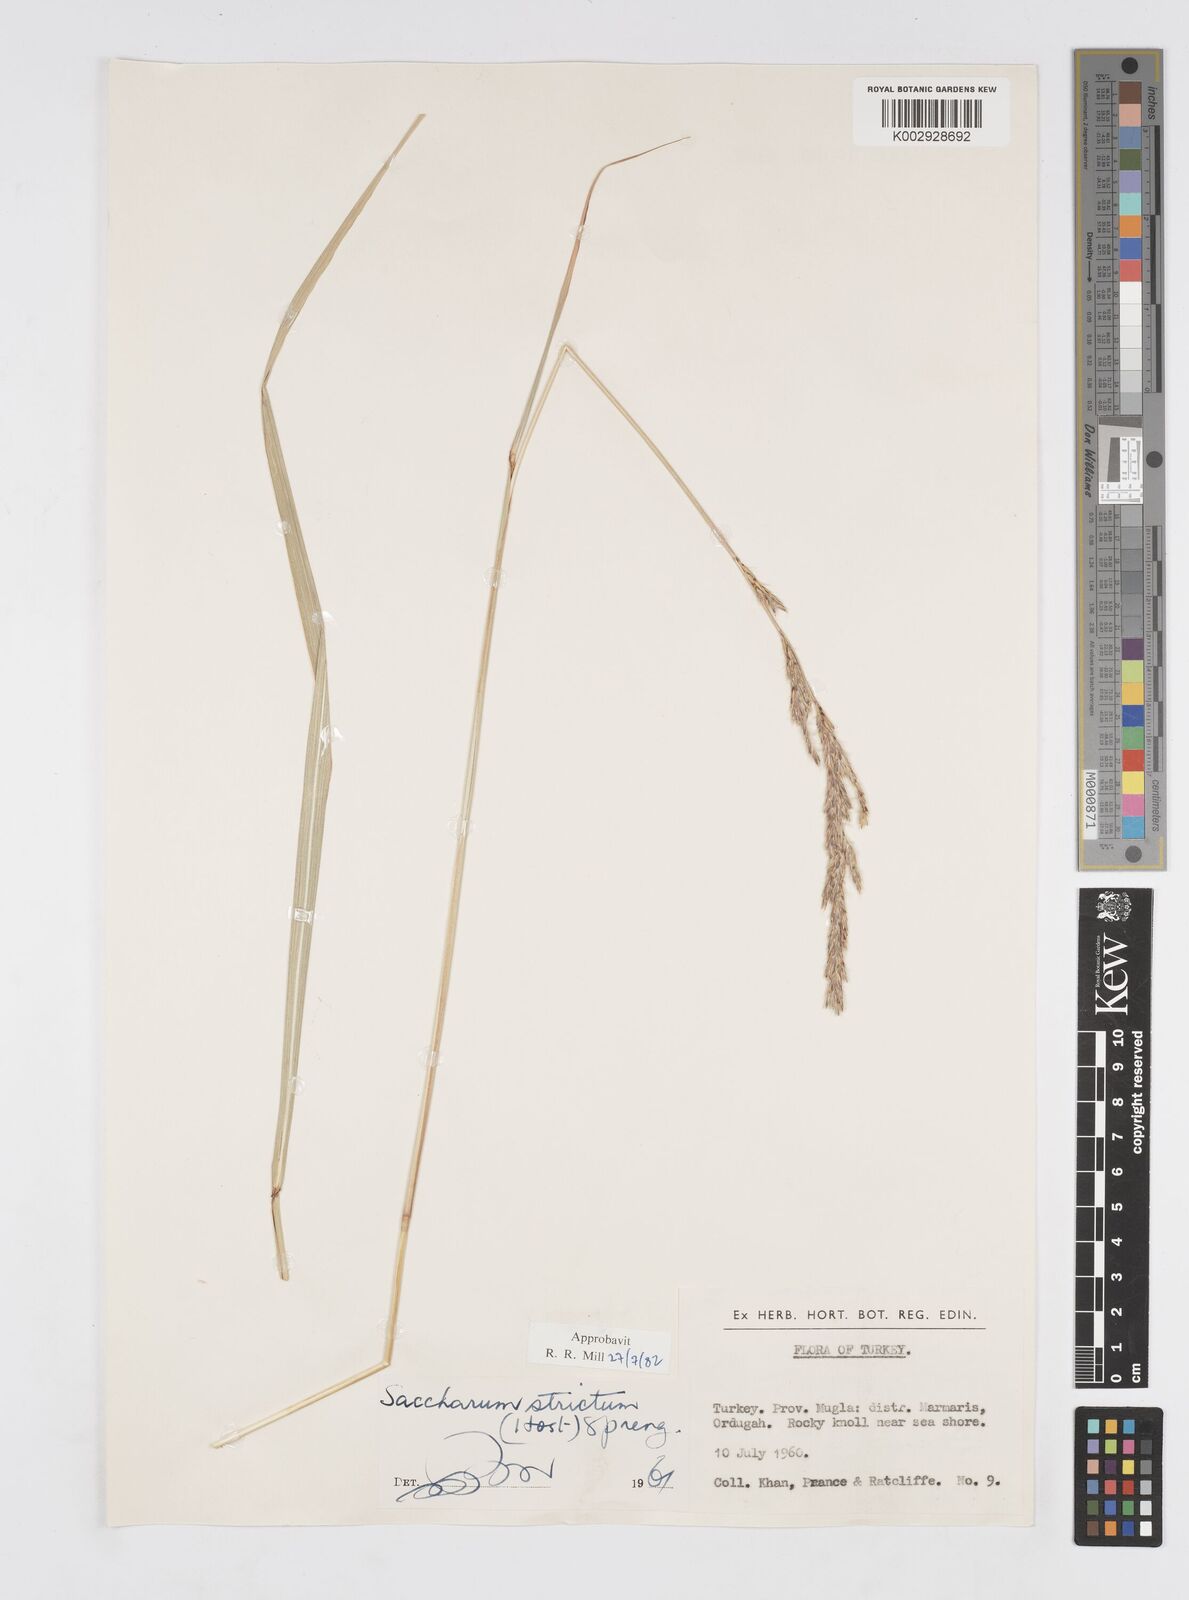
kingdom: Plantae
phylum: Tracheophyta
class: Liliopsida
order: Poales
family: Poaceae
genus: Tripidium
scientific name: Tripidium strictum
